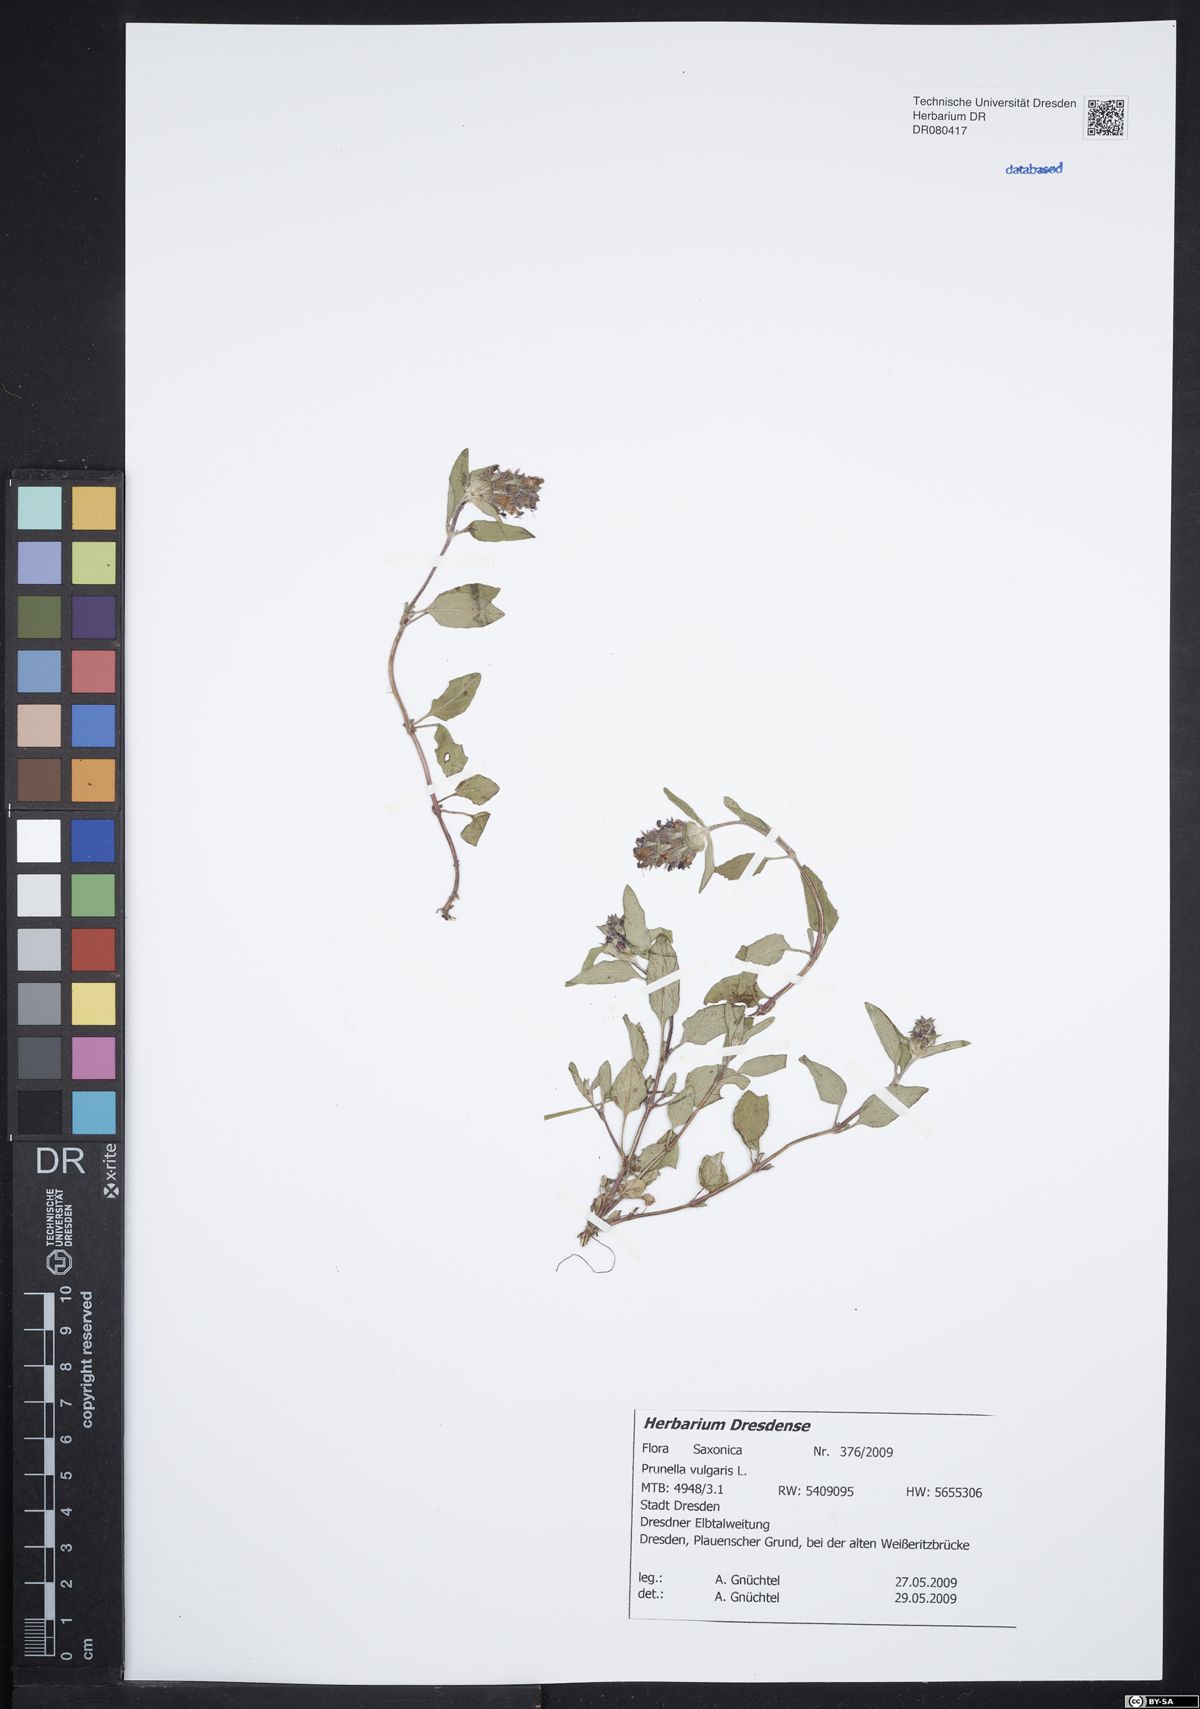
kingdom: Plantae
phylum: Tracheophyta
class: Magnoliopsida
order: Lamiales
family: Lamiaceae
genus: Prunella
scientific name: Prunella vulgaris
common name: Heal-all
